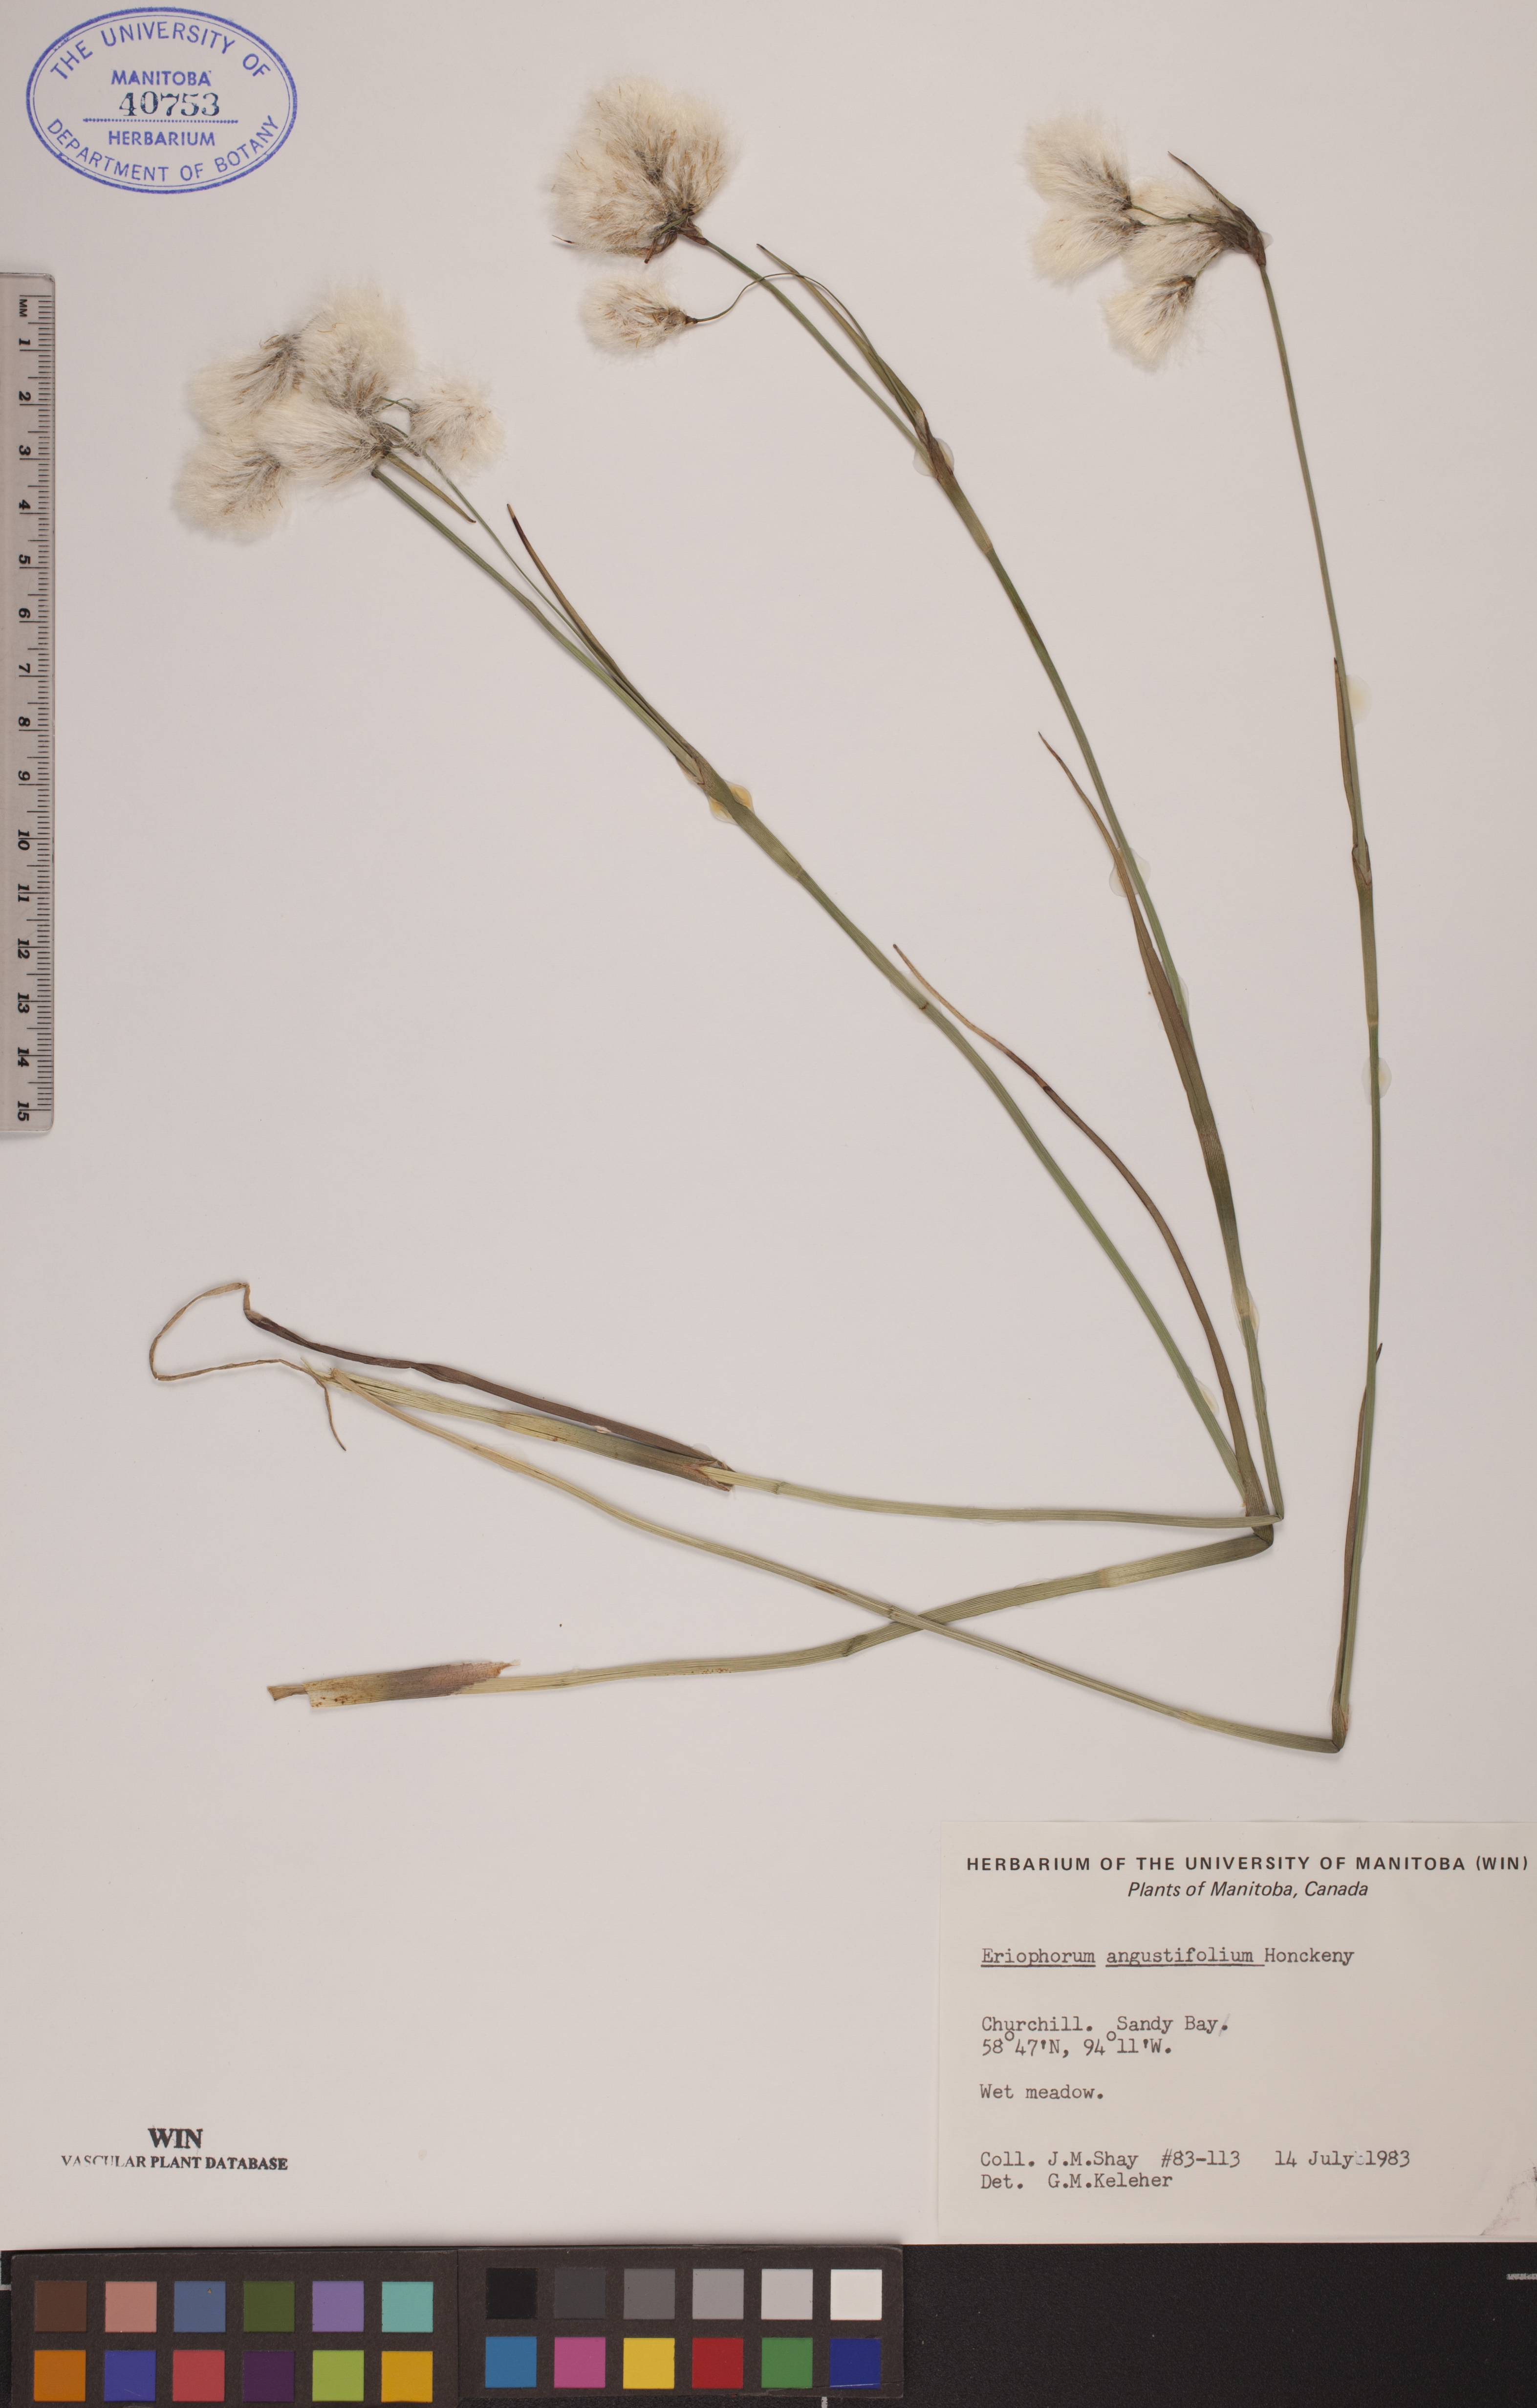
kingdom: Plantae
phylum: Tracheophyta
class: Liliopsida
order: Poales
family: Cyperaceae
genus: Eriophorum
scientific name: Eriophorum angustifolium
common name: Common cottongrass
